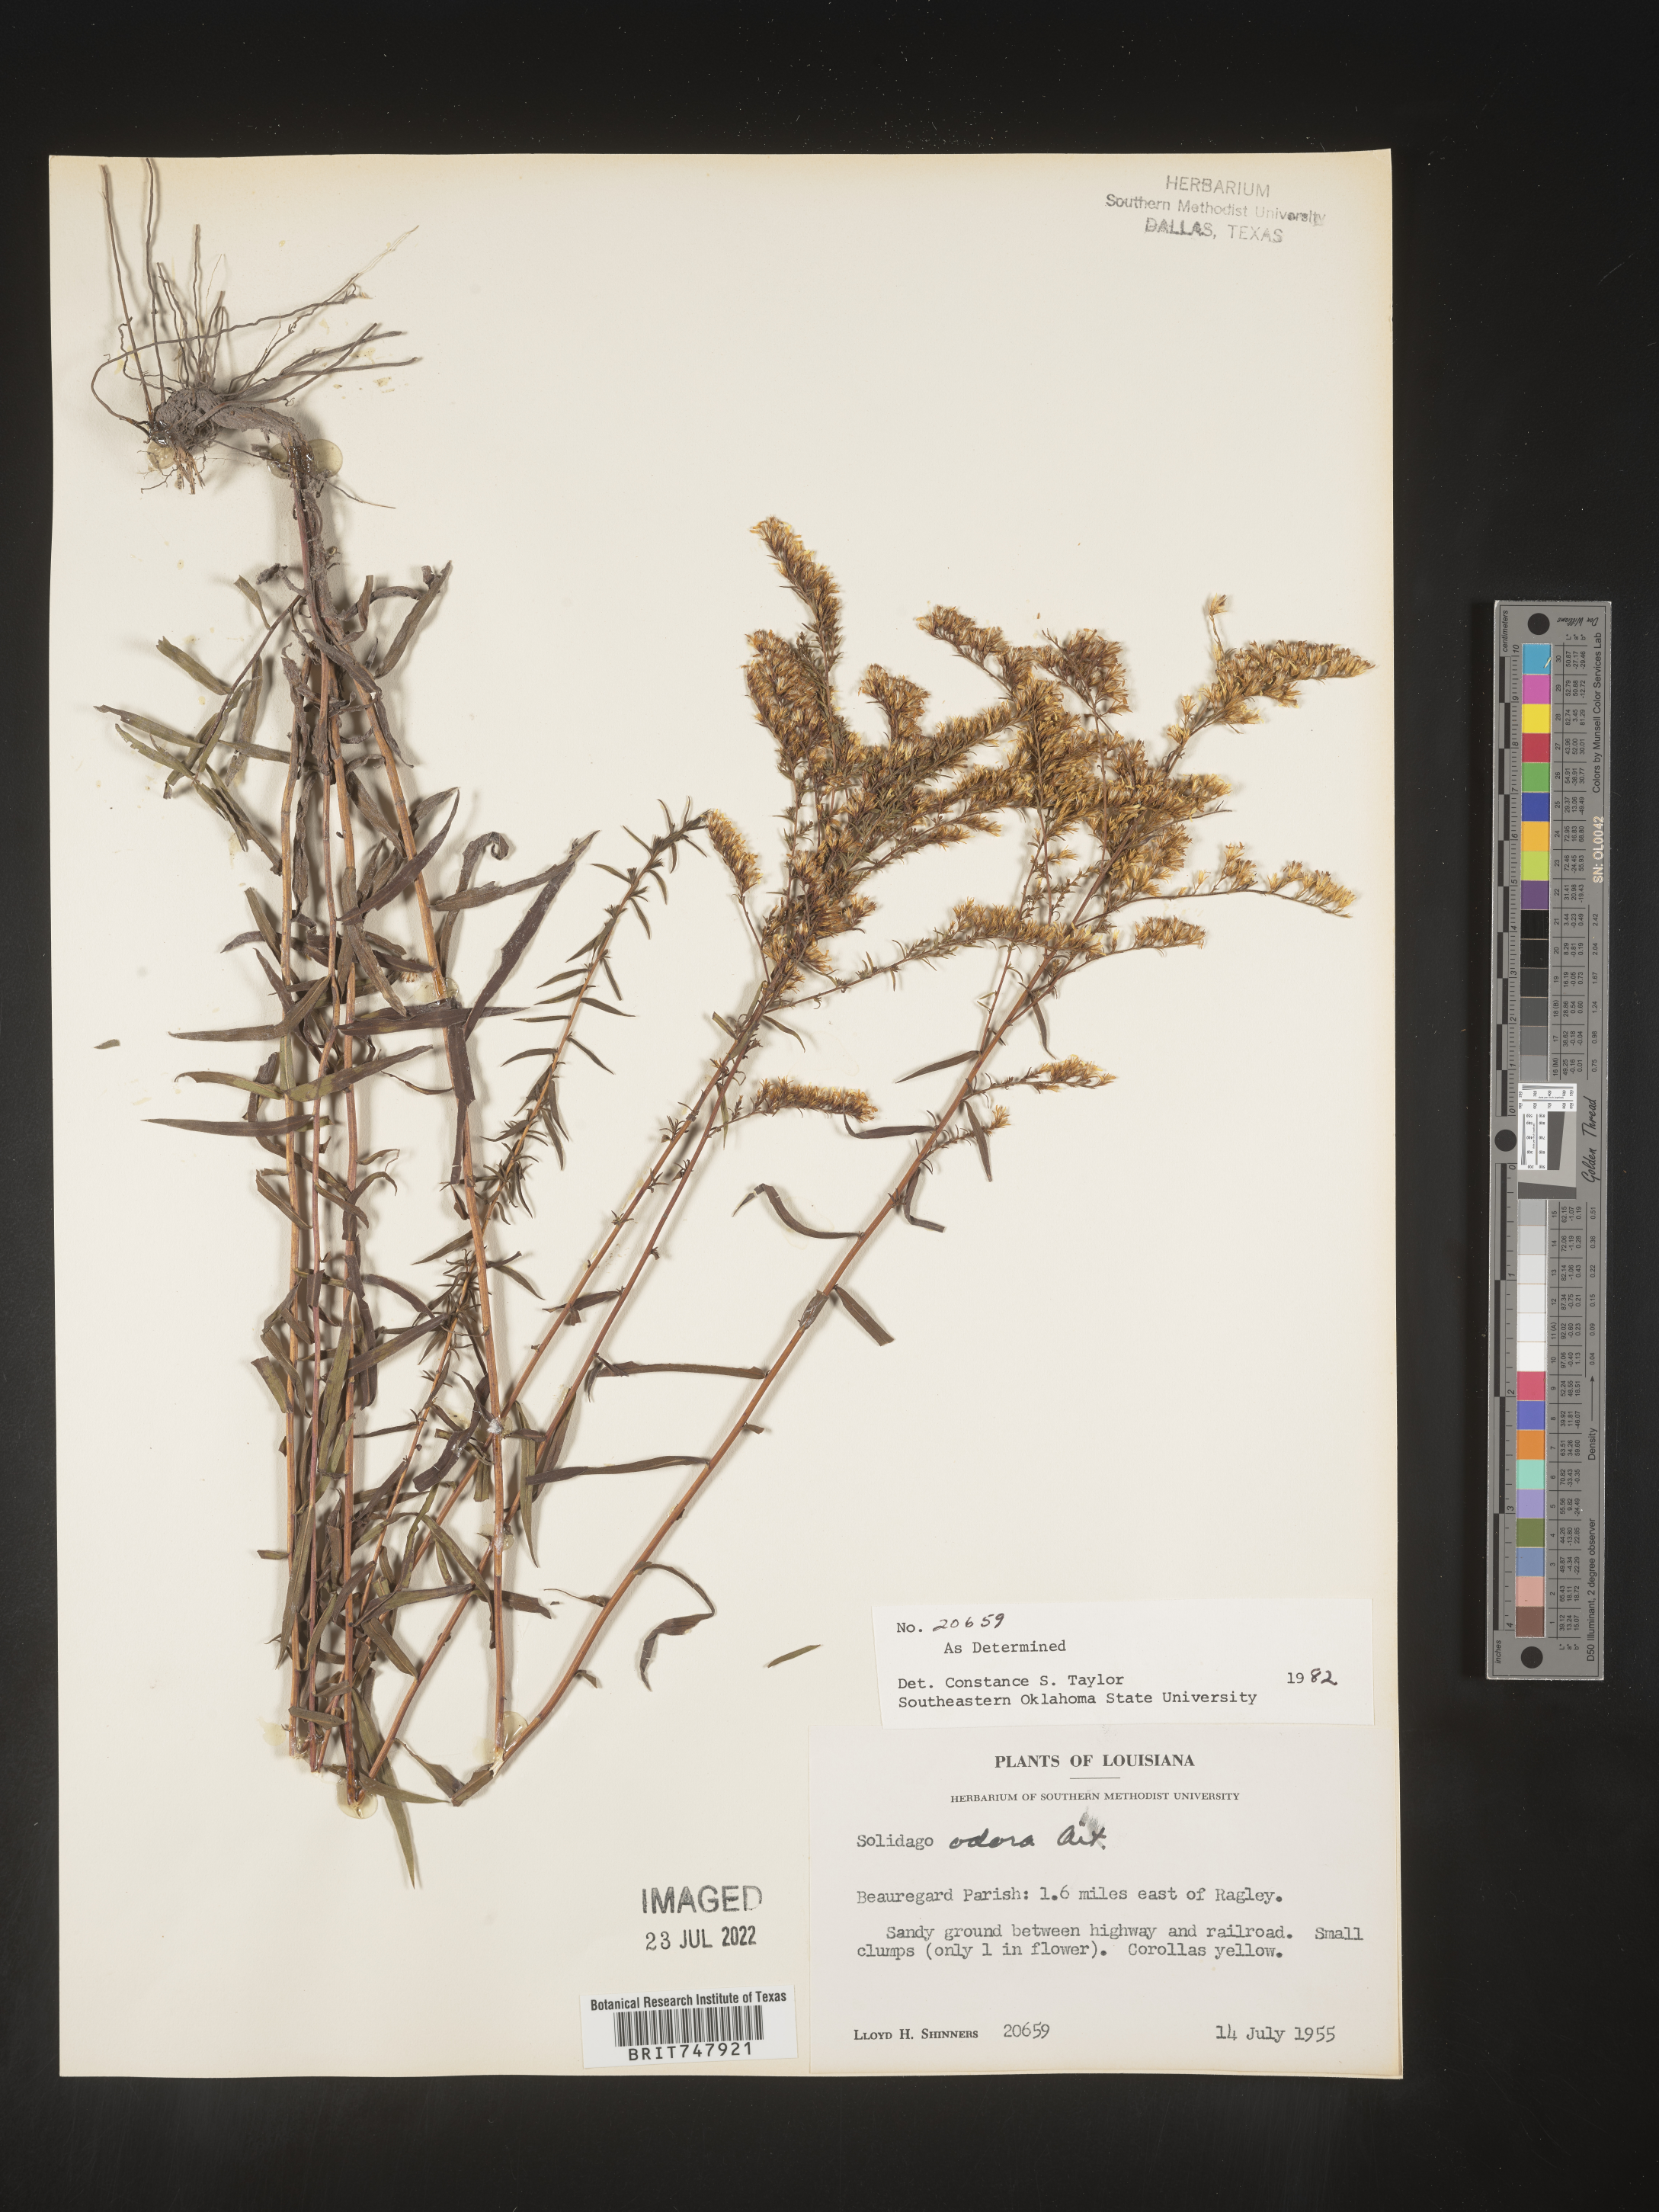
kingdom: Plantae
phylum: Tracheophyta
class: Magnoliopsida
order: Asterales
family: Asteraceae
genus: Solidago
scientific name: Solidago odora
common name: Anise-scented goldenrod
